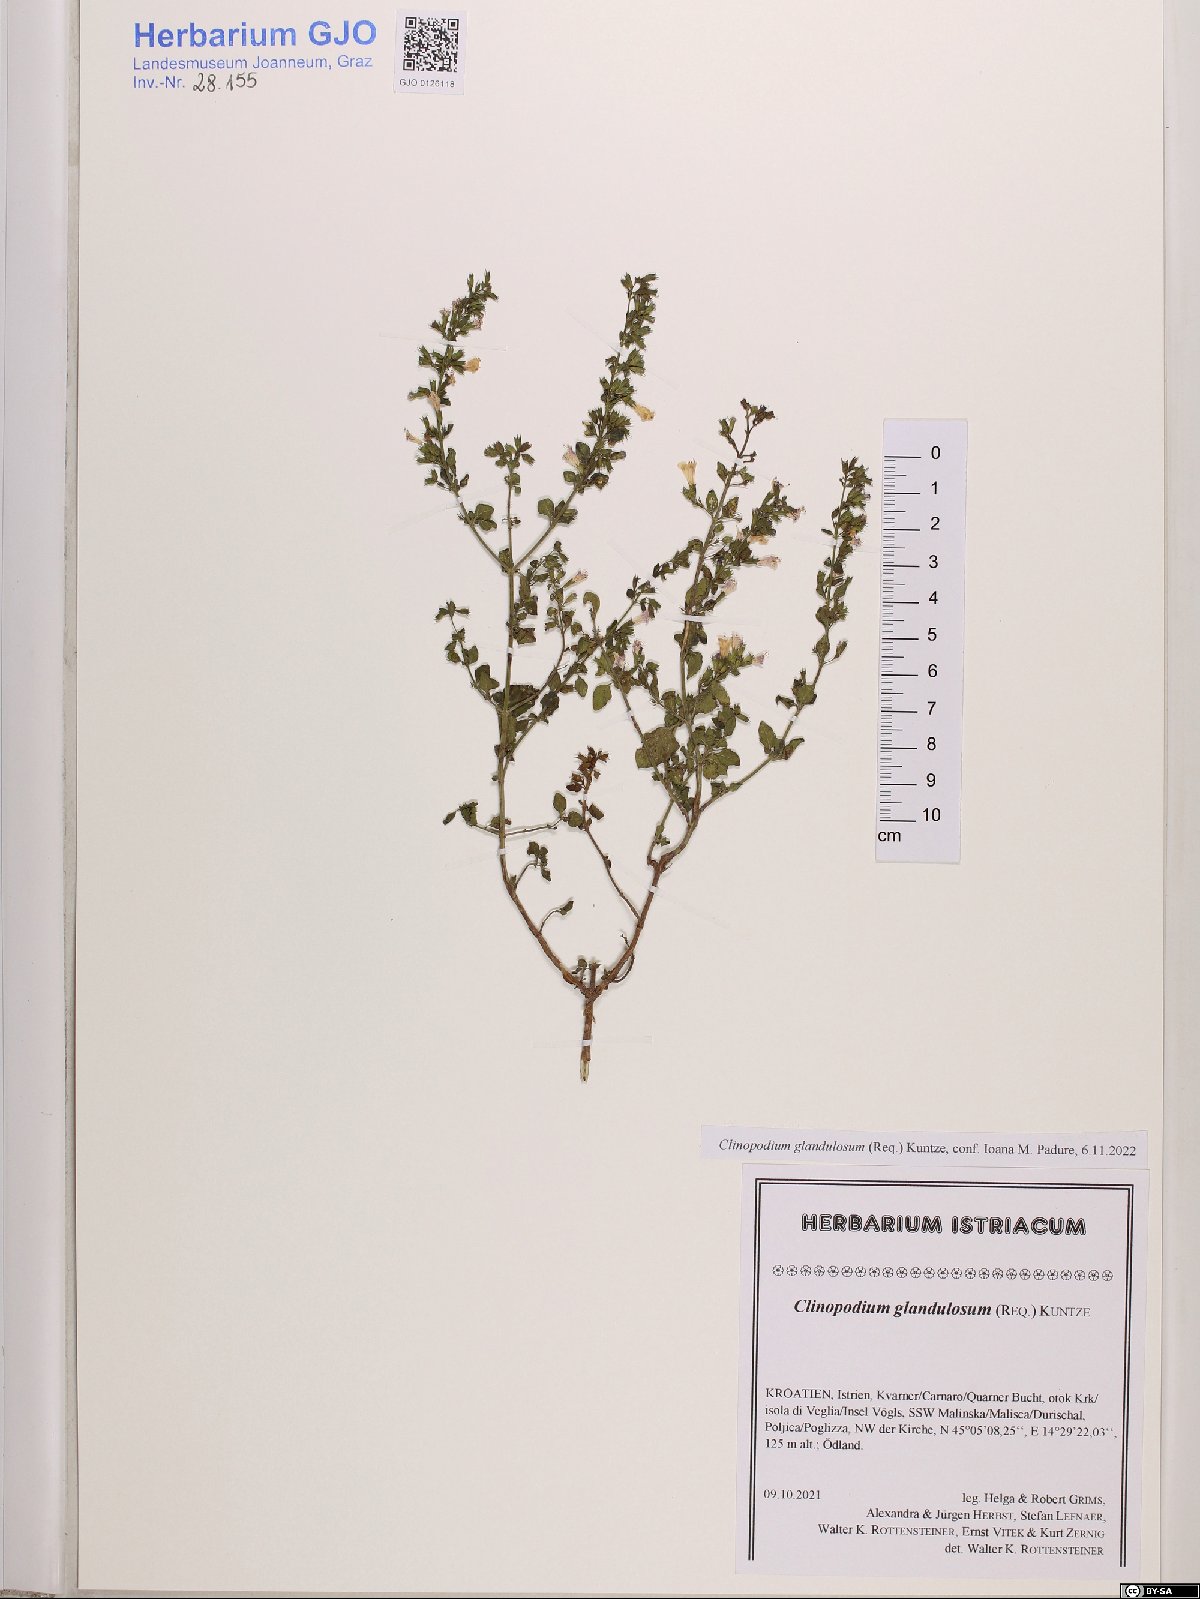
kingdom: Plantae
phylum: Tracheophyta
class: Magnoliopsida
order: Lamiales
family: Lamiaceae
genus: Clinopodium
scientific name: Clinopodium nepeta
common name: Lesser calamint
